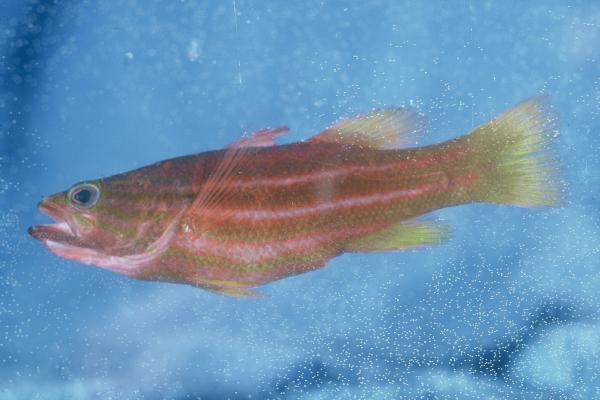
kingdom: Animalia
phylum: Chordata
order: Perciformes
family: Serranidae
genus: Liopropoma
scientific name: Liopropoma africanum
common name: African basslet
